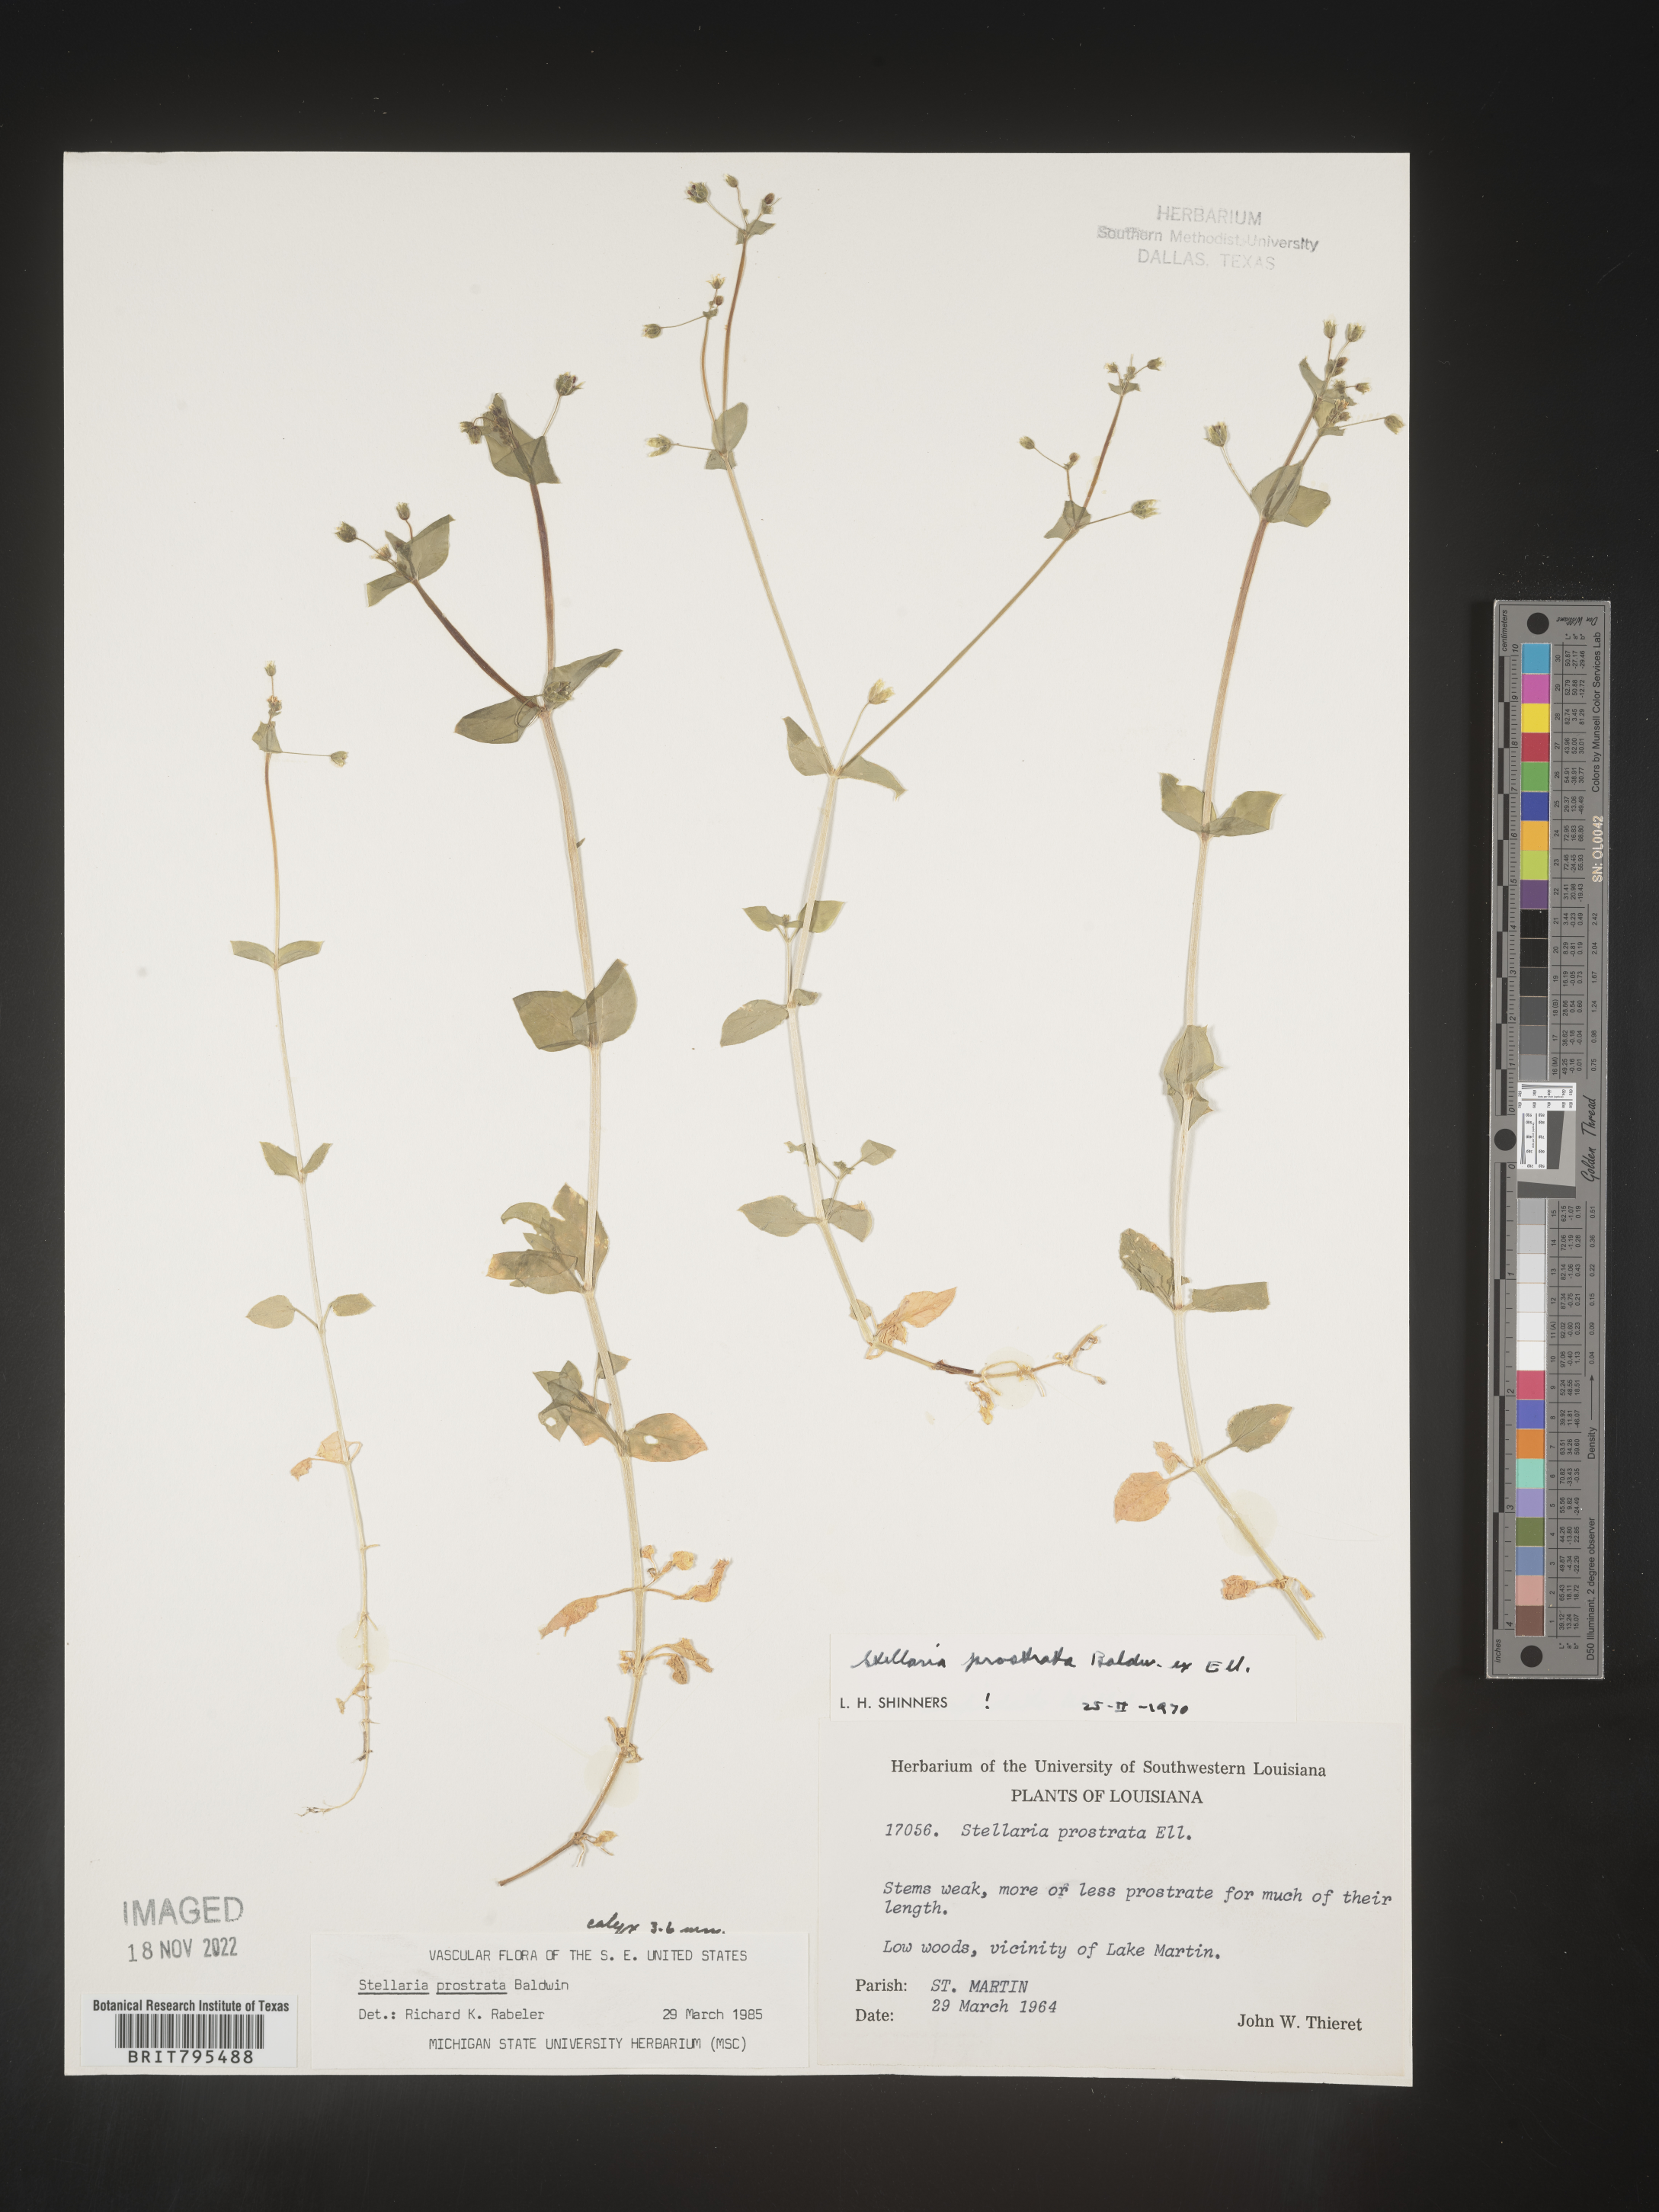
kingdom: Plantae
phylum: Tracheophyta
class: Magnoliopsida
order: Caryophyllales
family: Caryophyllaceae
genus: Stellaria
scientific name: Stellaria cuspidata
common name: Mexican chickweed
